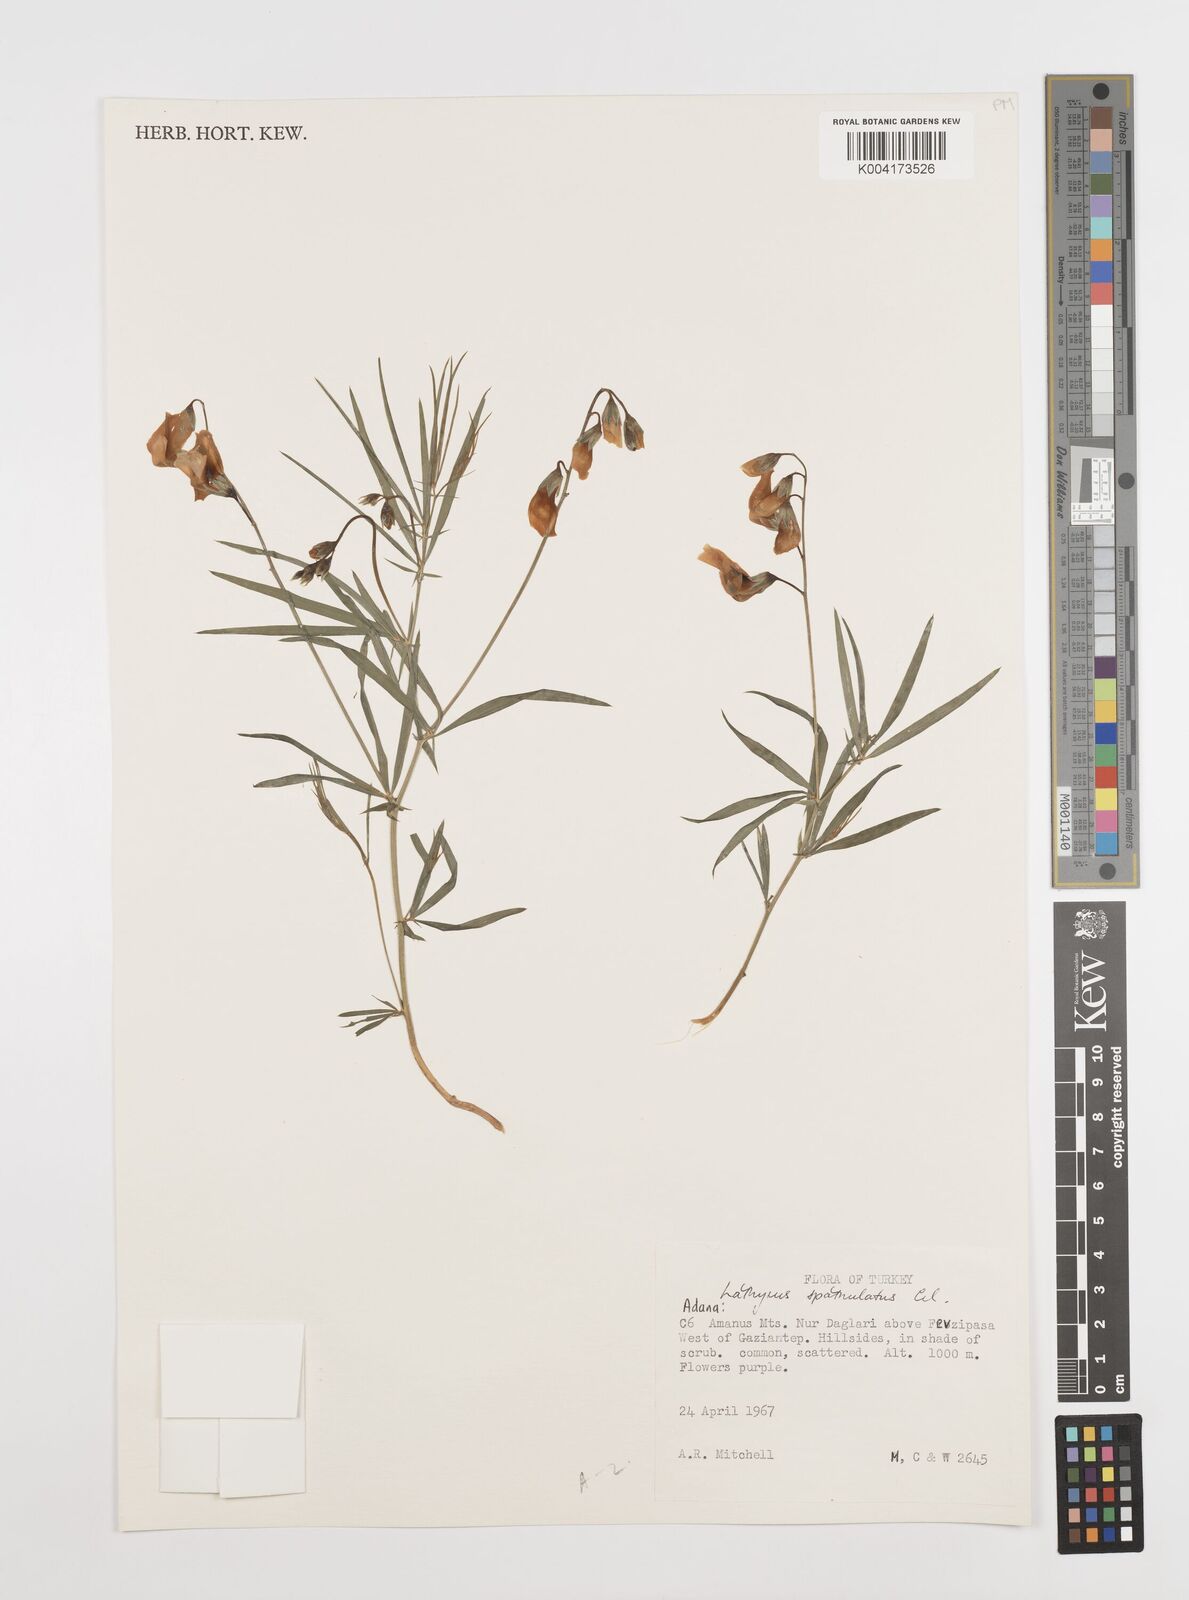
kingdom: Plantae
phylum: Tracheophyta
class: Magnoliopsida
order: Fabales
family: Fabaceae
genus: Lathyrus
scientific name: Lathyrus spathulatus
